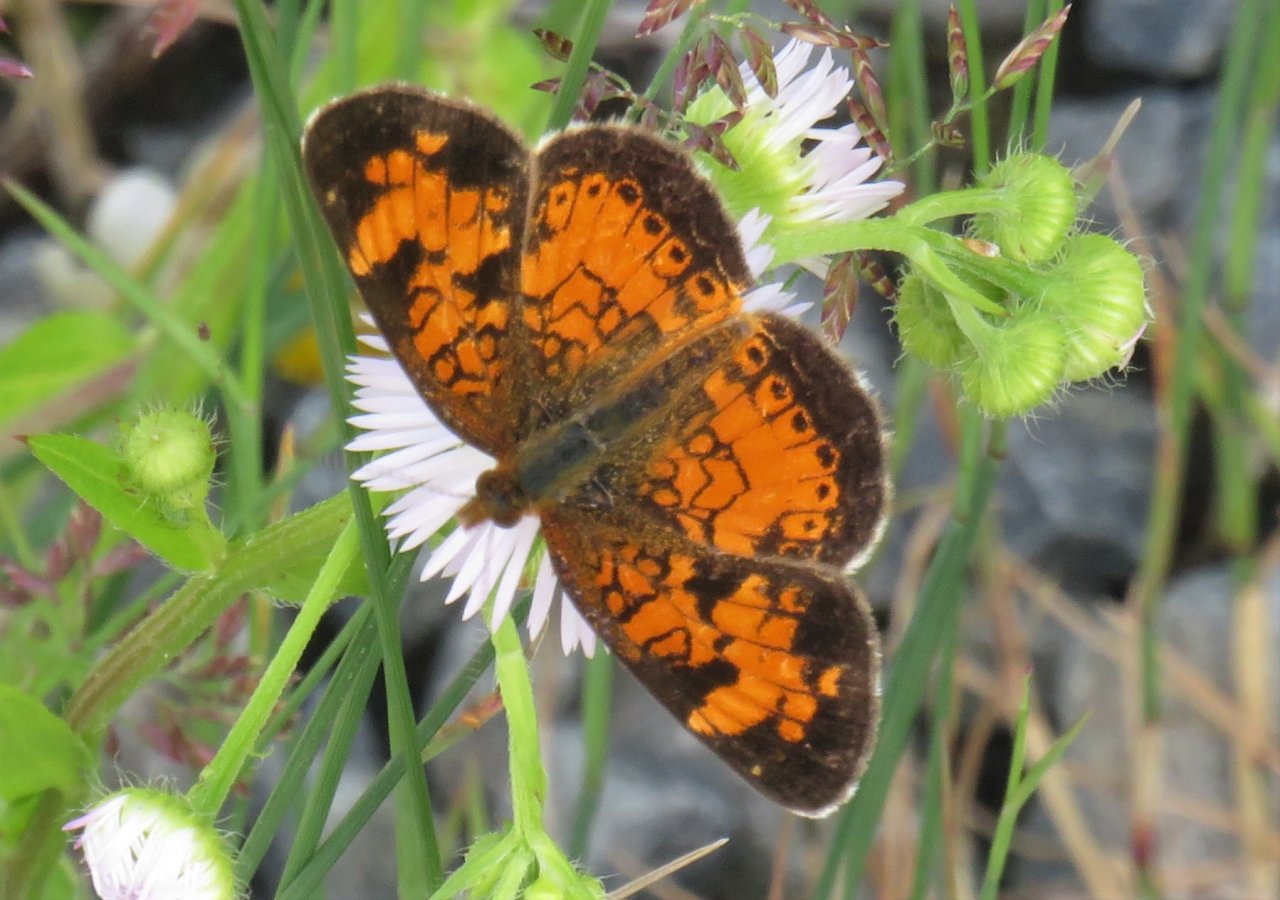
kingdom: Animalia
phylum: Arthropoda
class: Insecta
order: Lepidoptera
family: Nymphalidae
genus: Phyciodes
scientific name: Phyciodes tharos
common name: Northern Crescent
